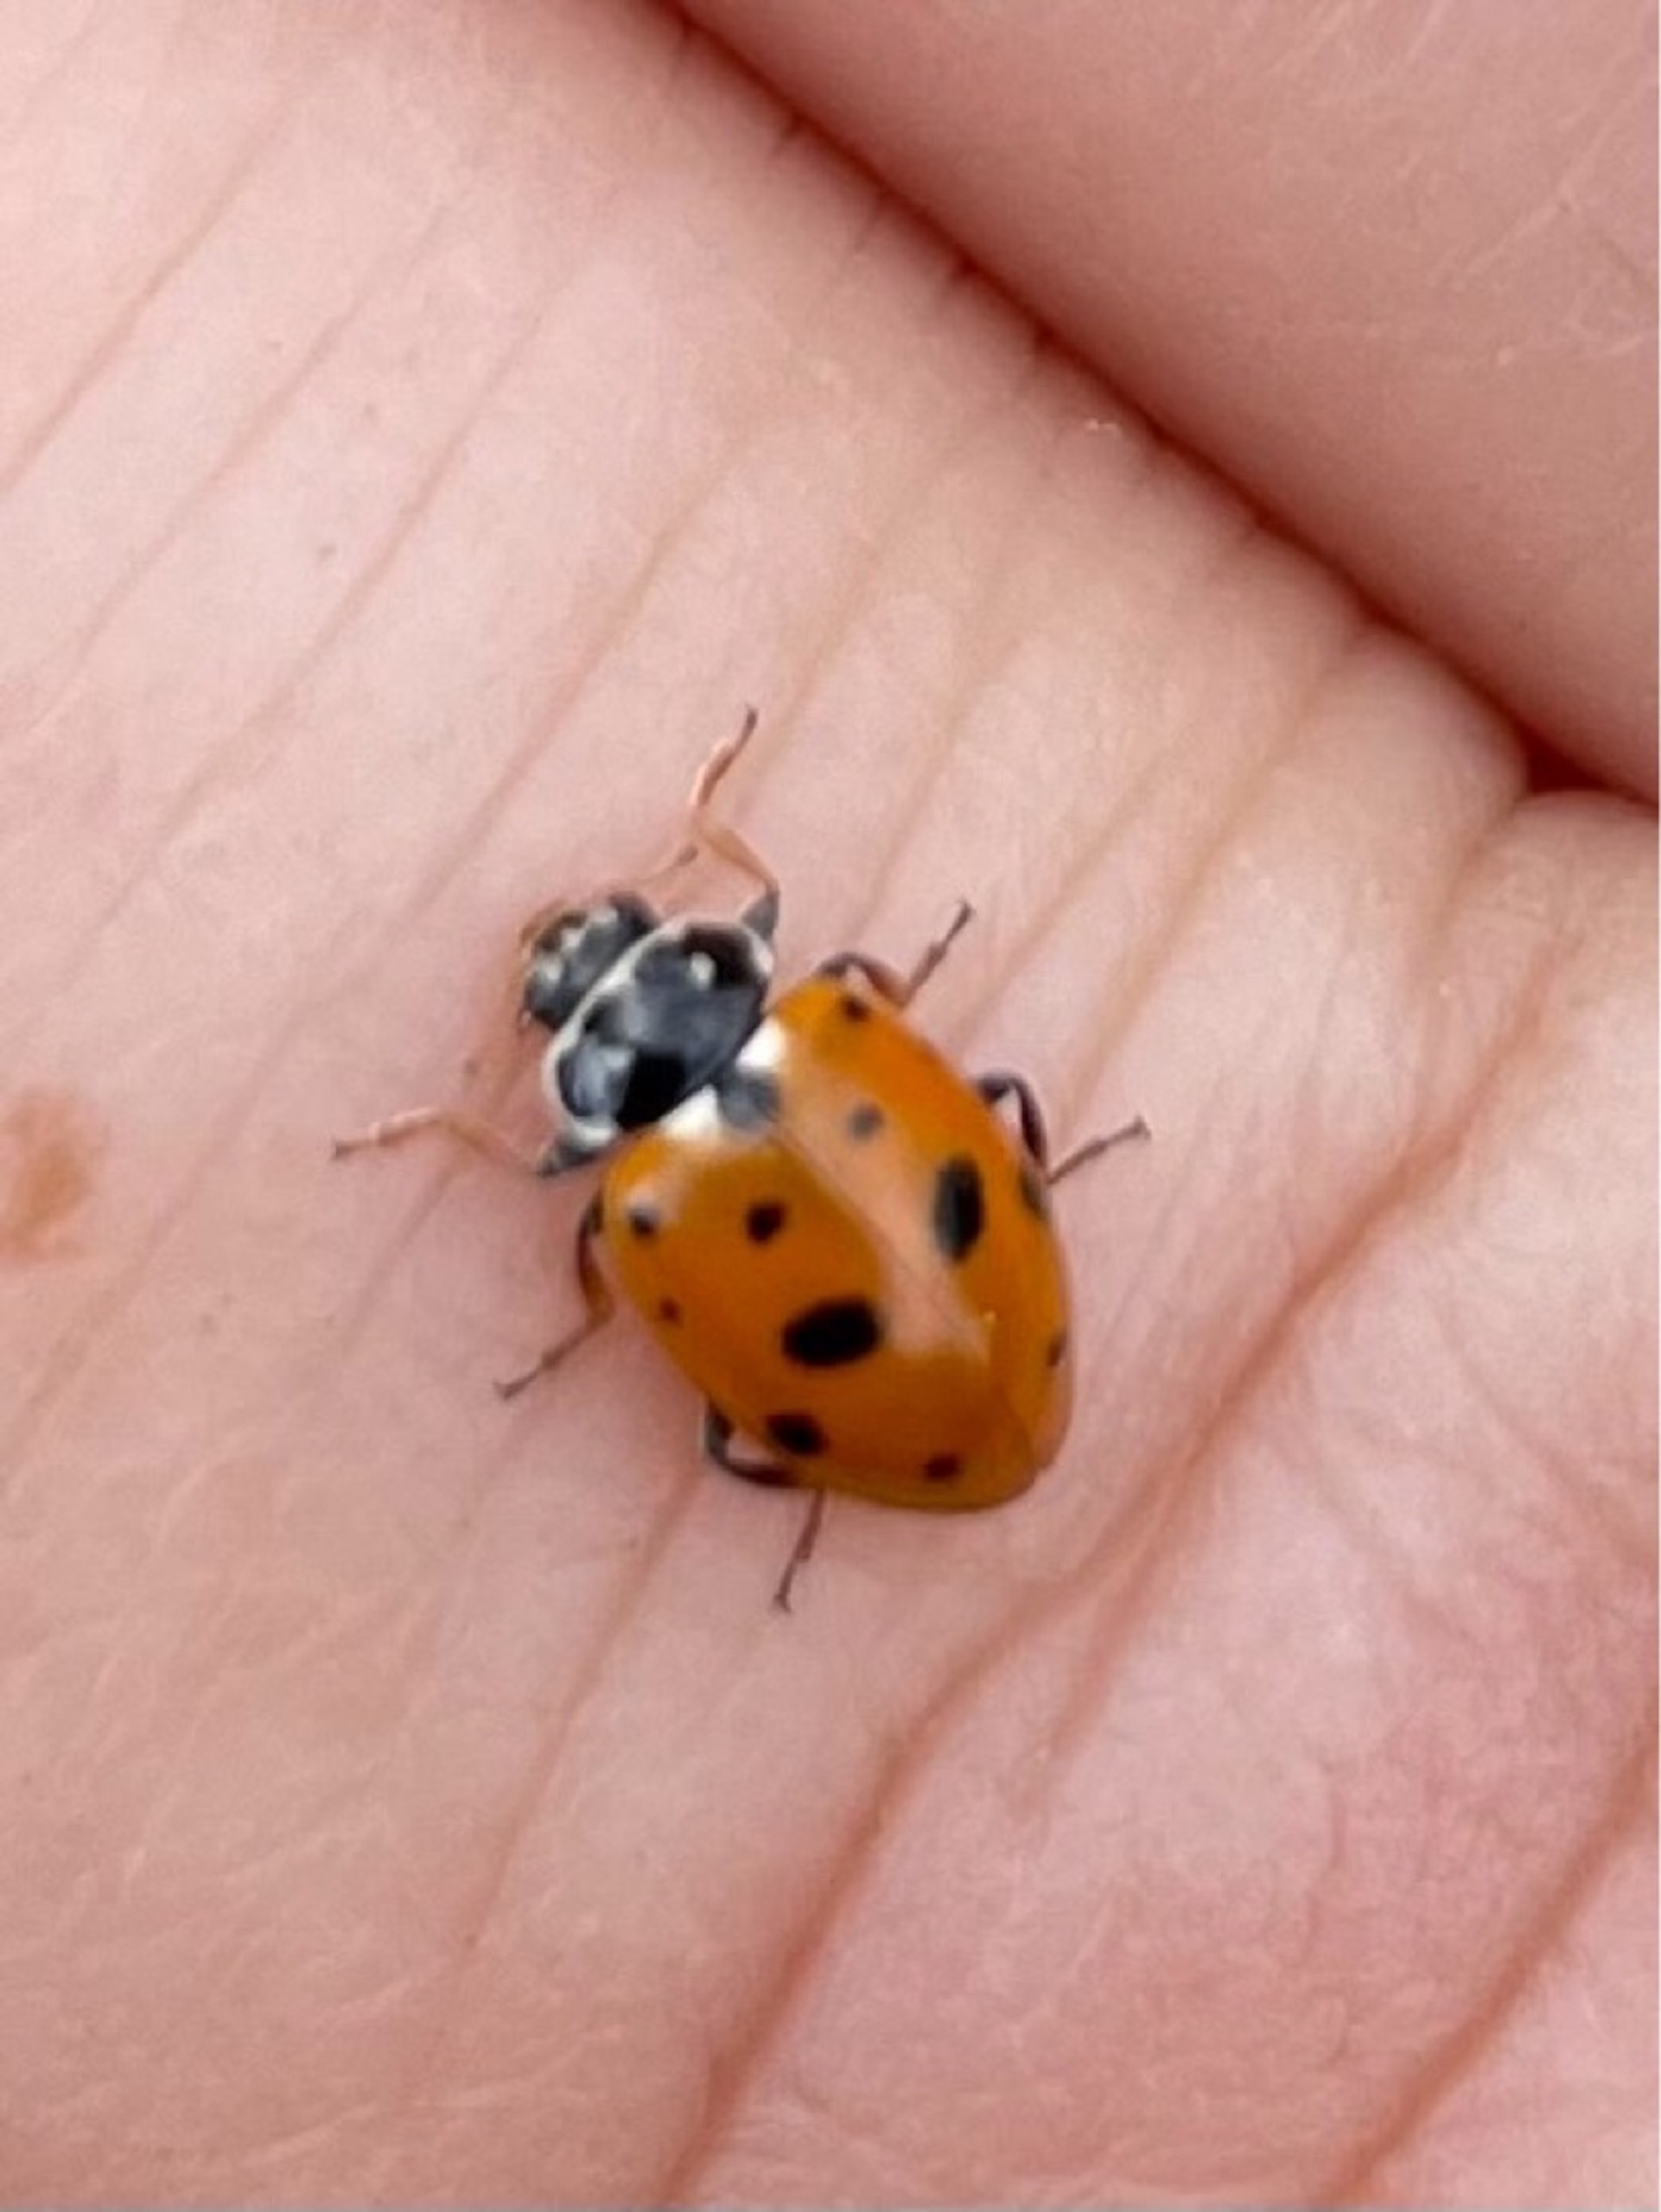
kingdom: Animalia
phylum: Arthropoda
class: Insecta
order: Coleoptera
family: Coccinellidae
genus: Hippodamia
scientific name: Hippodamia variegata
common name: Adonis' mariehøne
